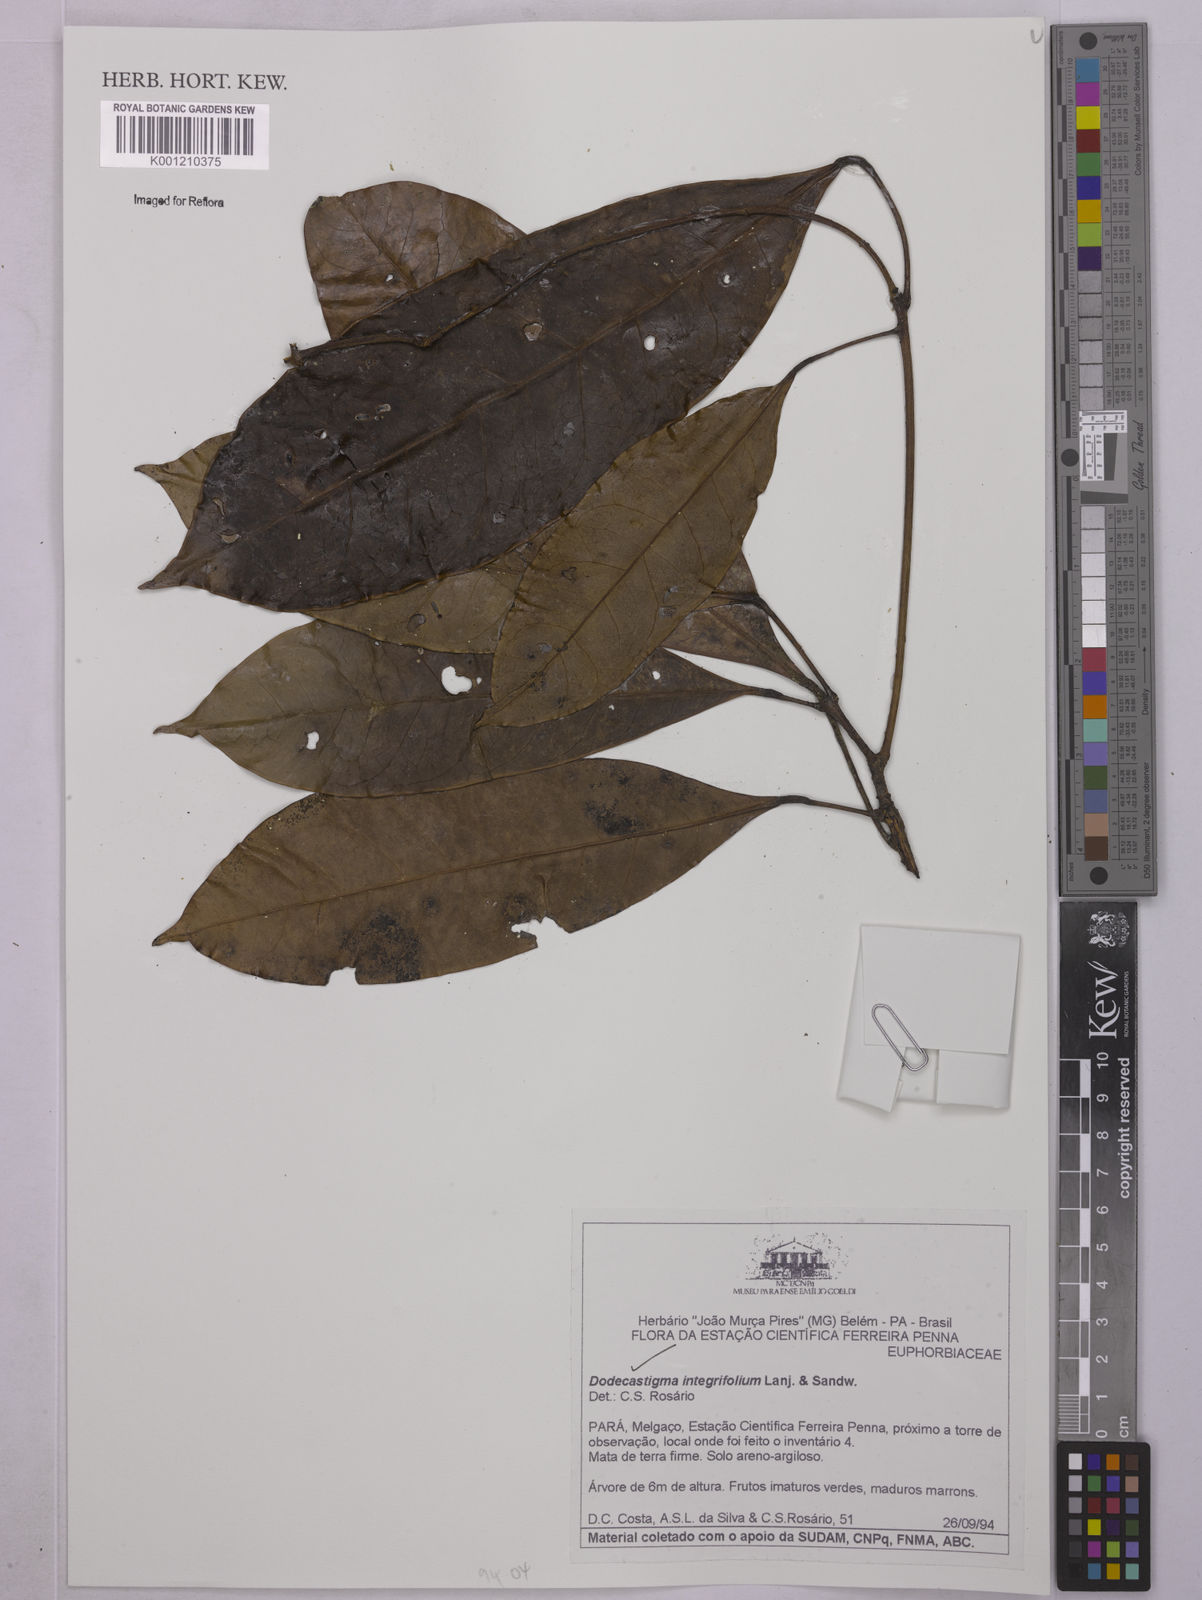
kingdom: Plantae
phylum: Tracheophyta
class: Magnoliopsida
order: Malpighiales
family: Euphorbiaceae
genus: Dodecastigma
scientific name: Dodecastigma integrifolium
